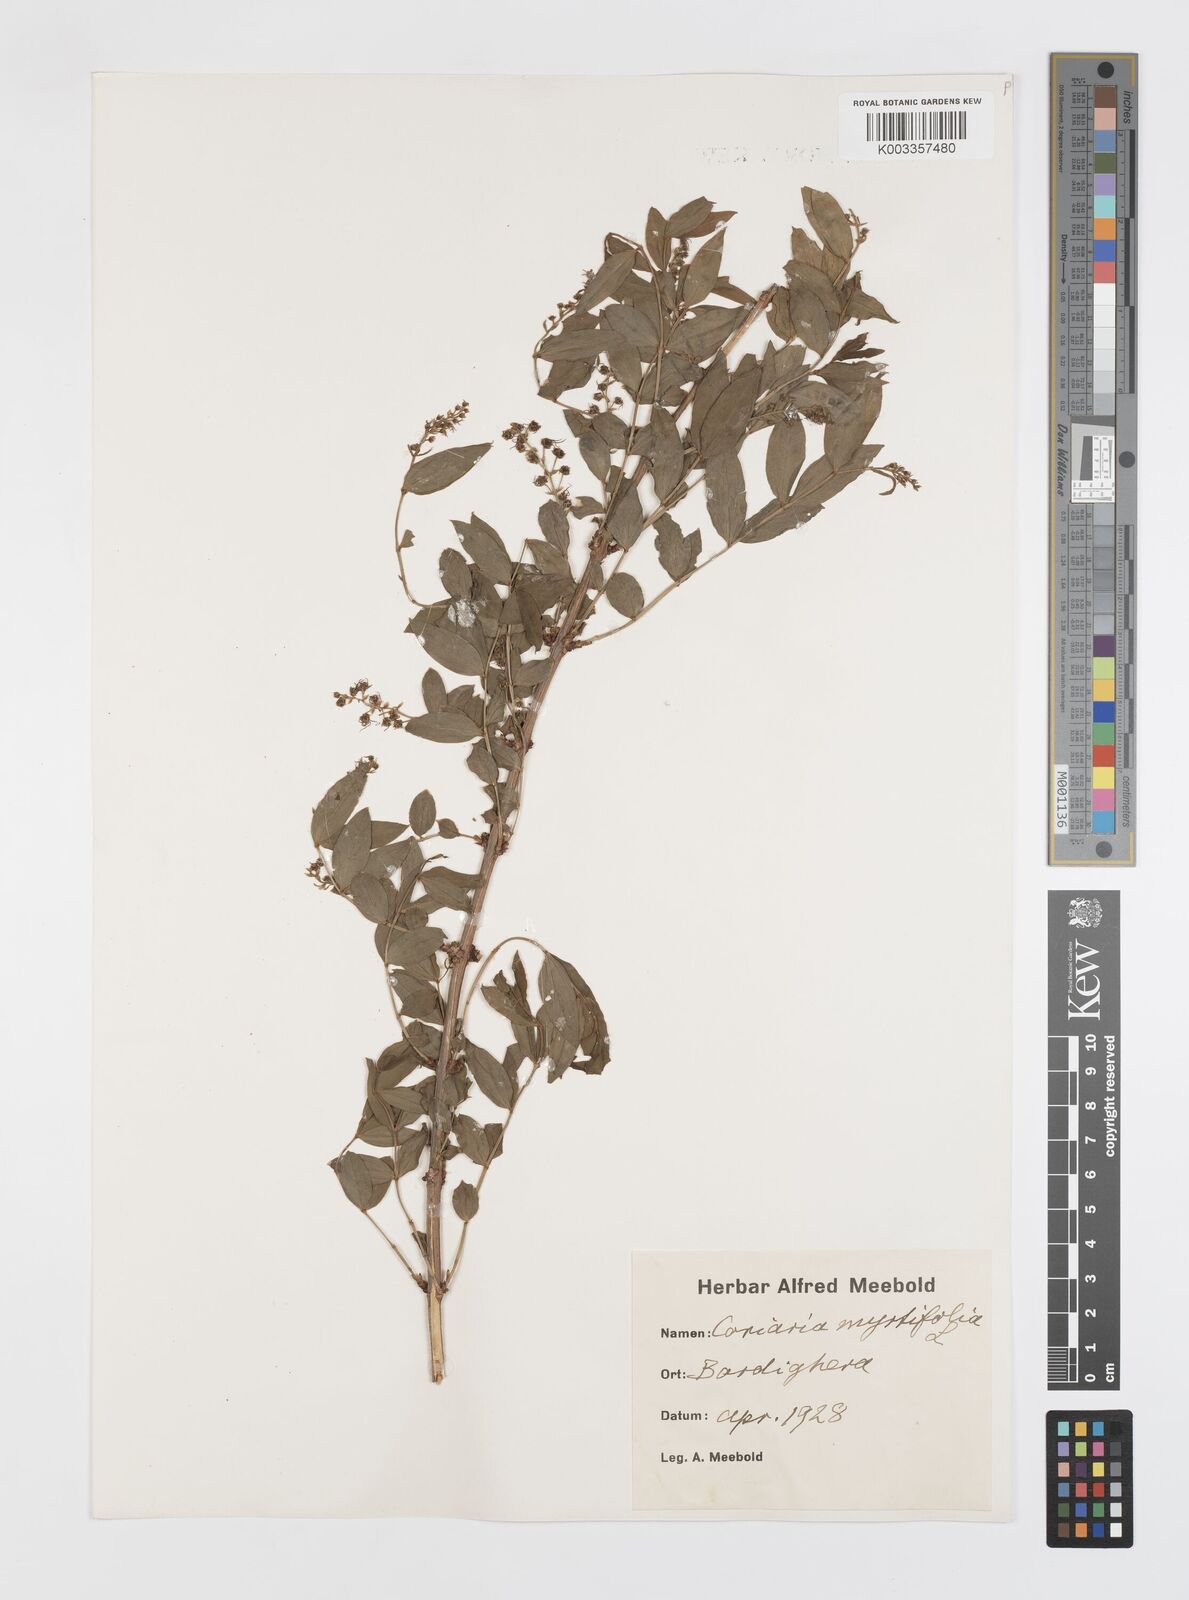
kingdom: Plantae
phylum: Tracheophyta
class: Magnoliopsida
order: Cucurbitales
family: Coriariaceae
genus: Coriaria
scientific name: Coriaria myrtifolia
